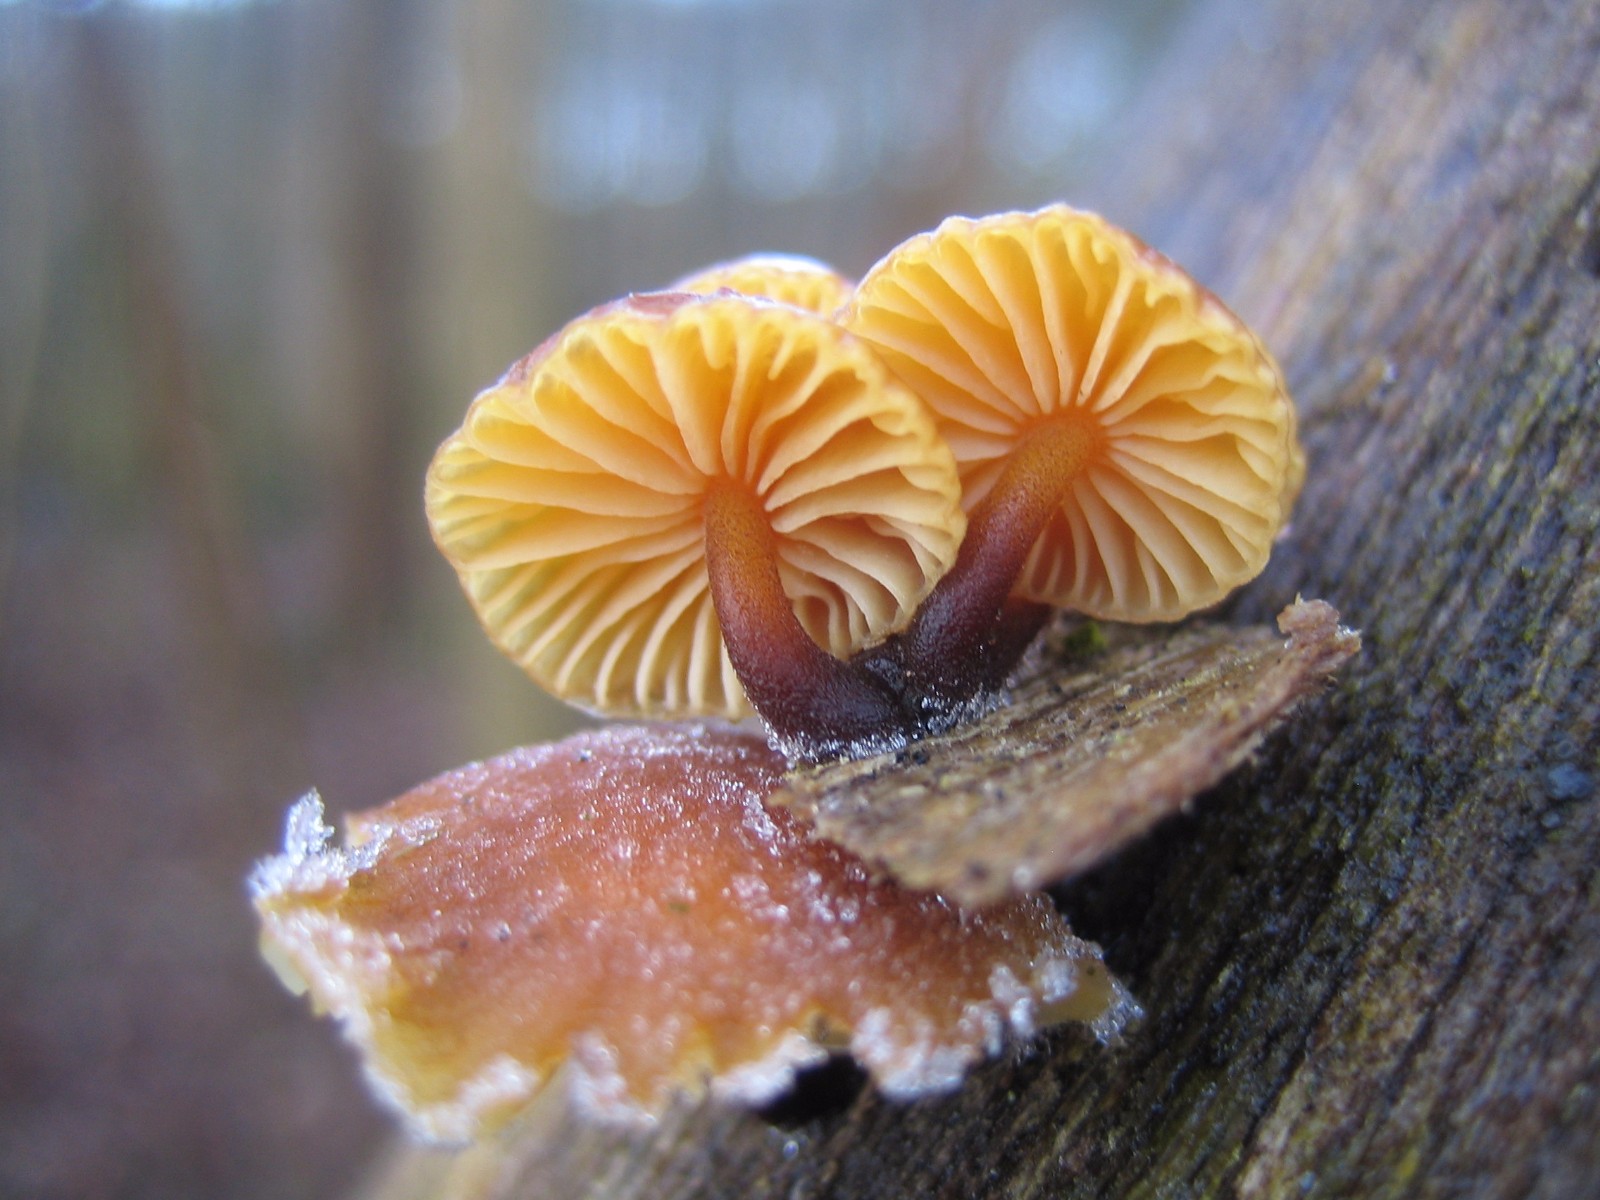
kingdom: Fungi
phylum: Basidiomycota
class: Agaricomycetes
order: Agaricales
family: Physalacriaceae
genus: Flammulina
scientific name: Flammulina
